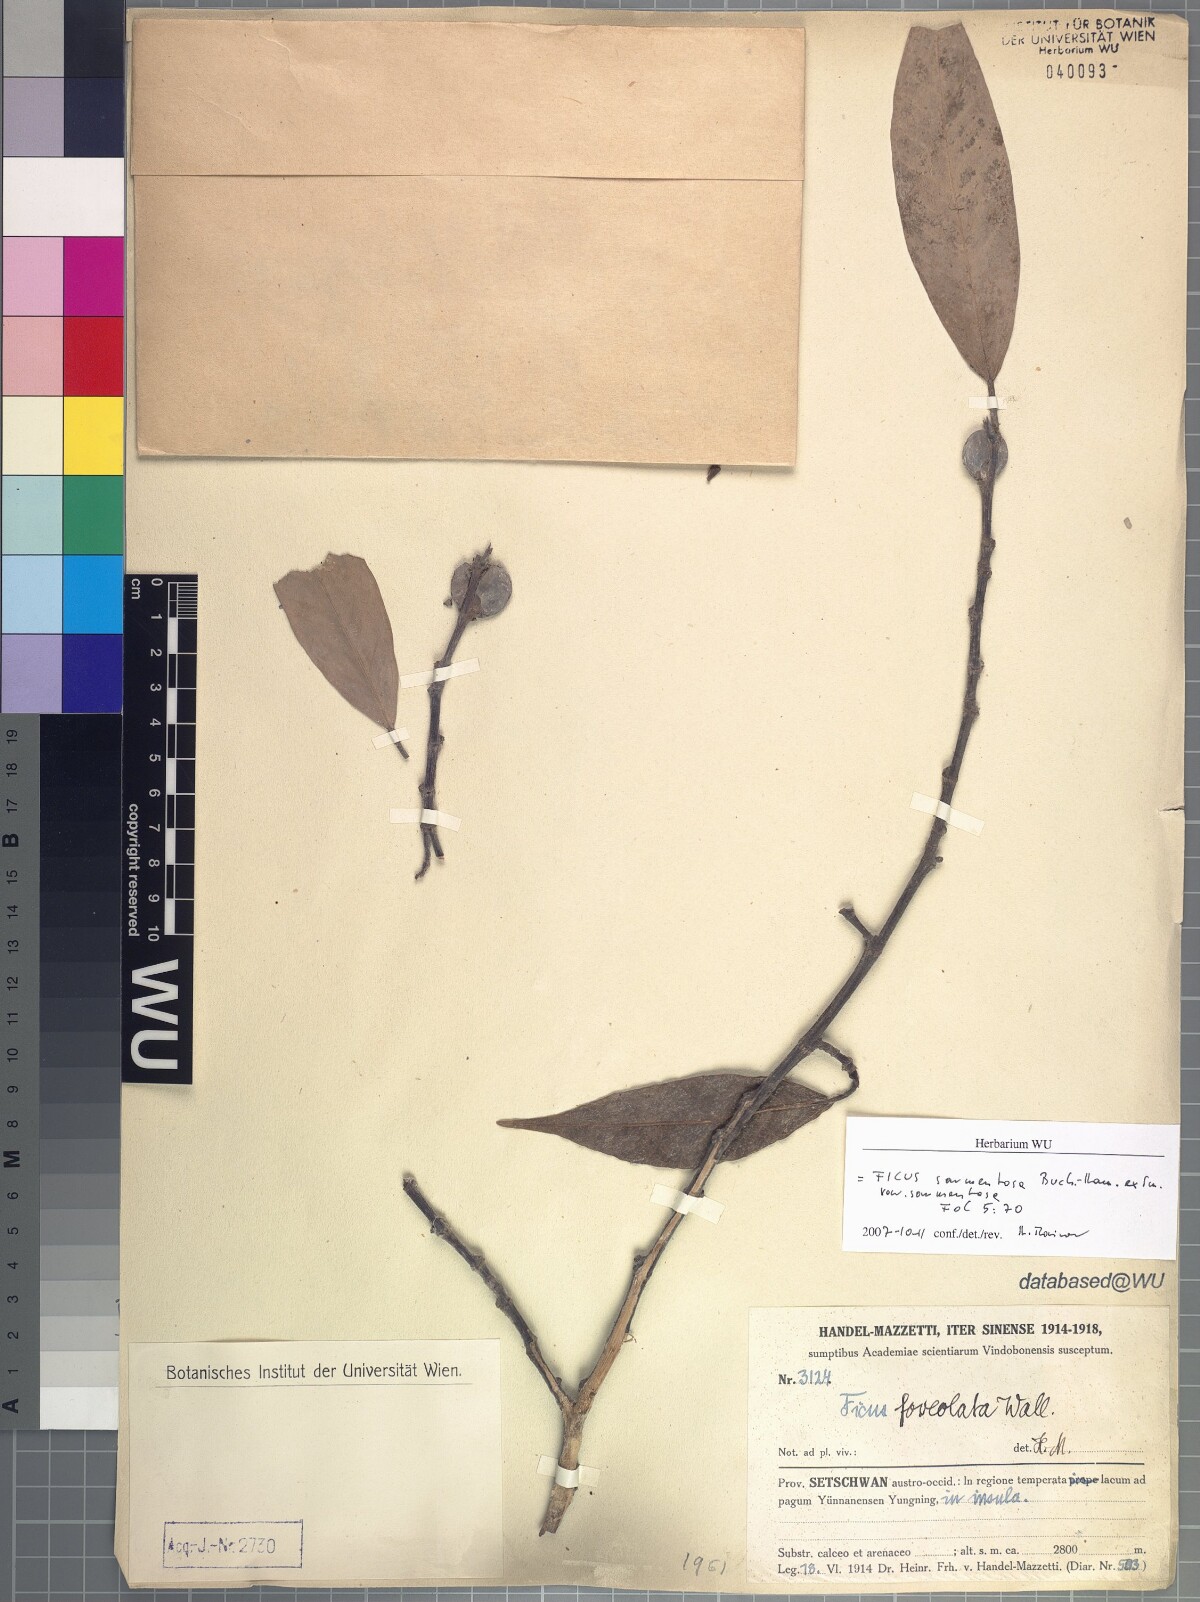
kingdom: Plantae
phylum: Tracheophyta
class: Magnoliopsida
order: Rosales
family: Moraceae
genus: Ficus
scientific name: Ficus sarmentosa
